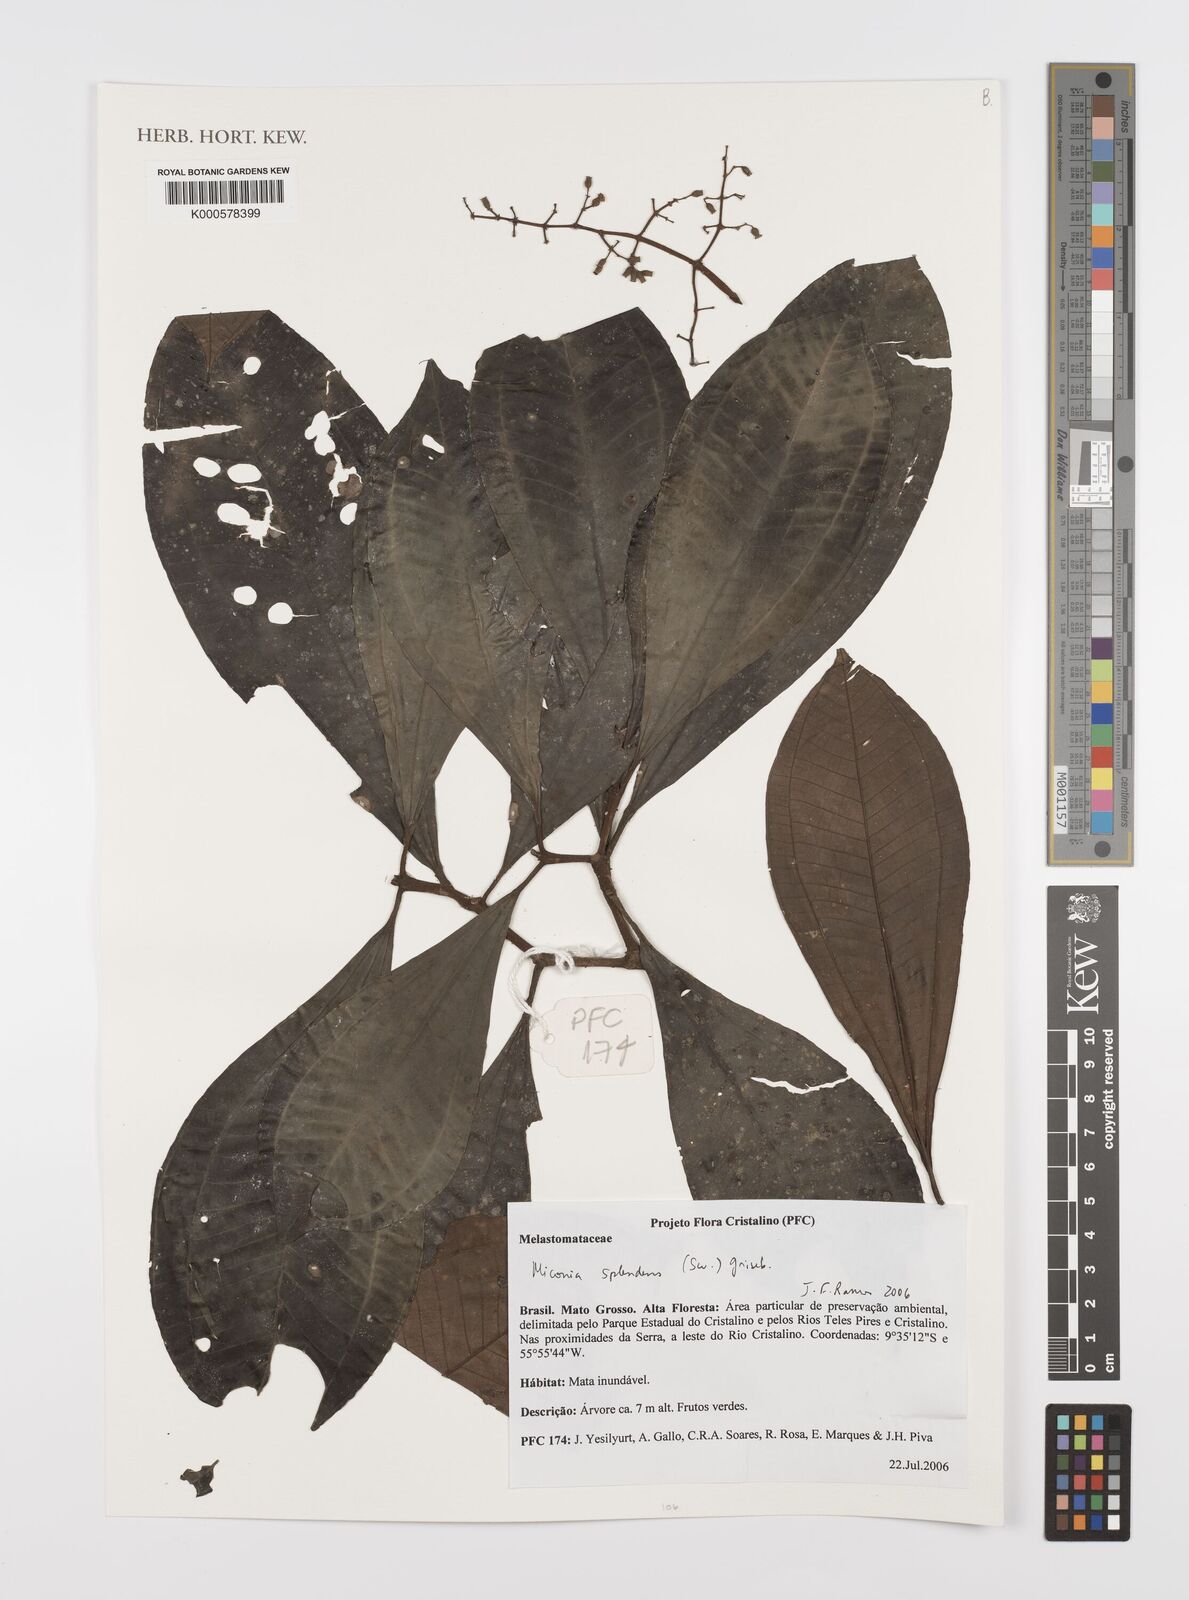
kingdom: Plantae
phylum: Tracheophyta
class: Magnoliopsida
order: Myrtales
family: Melastomataceae
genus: Miconia
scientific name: Miconia splendens
